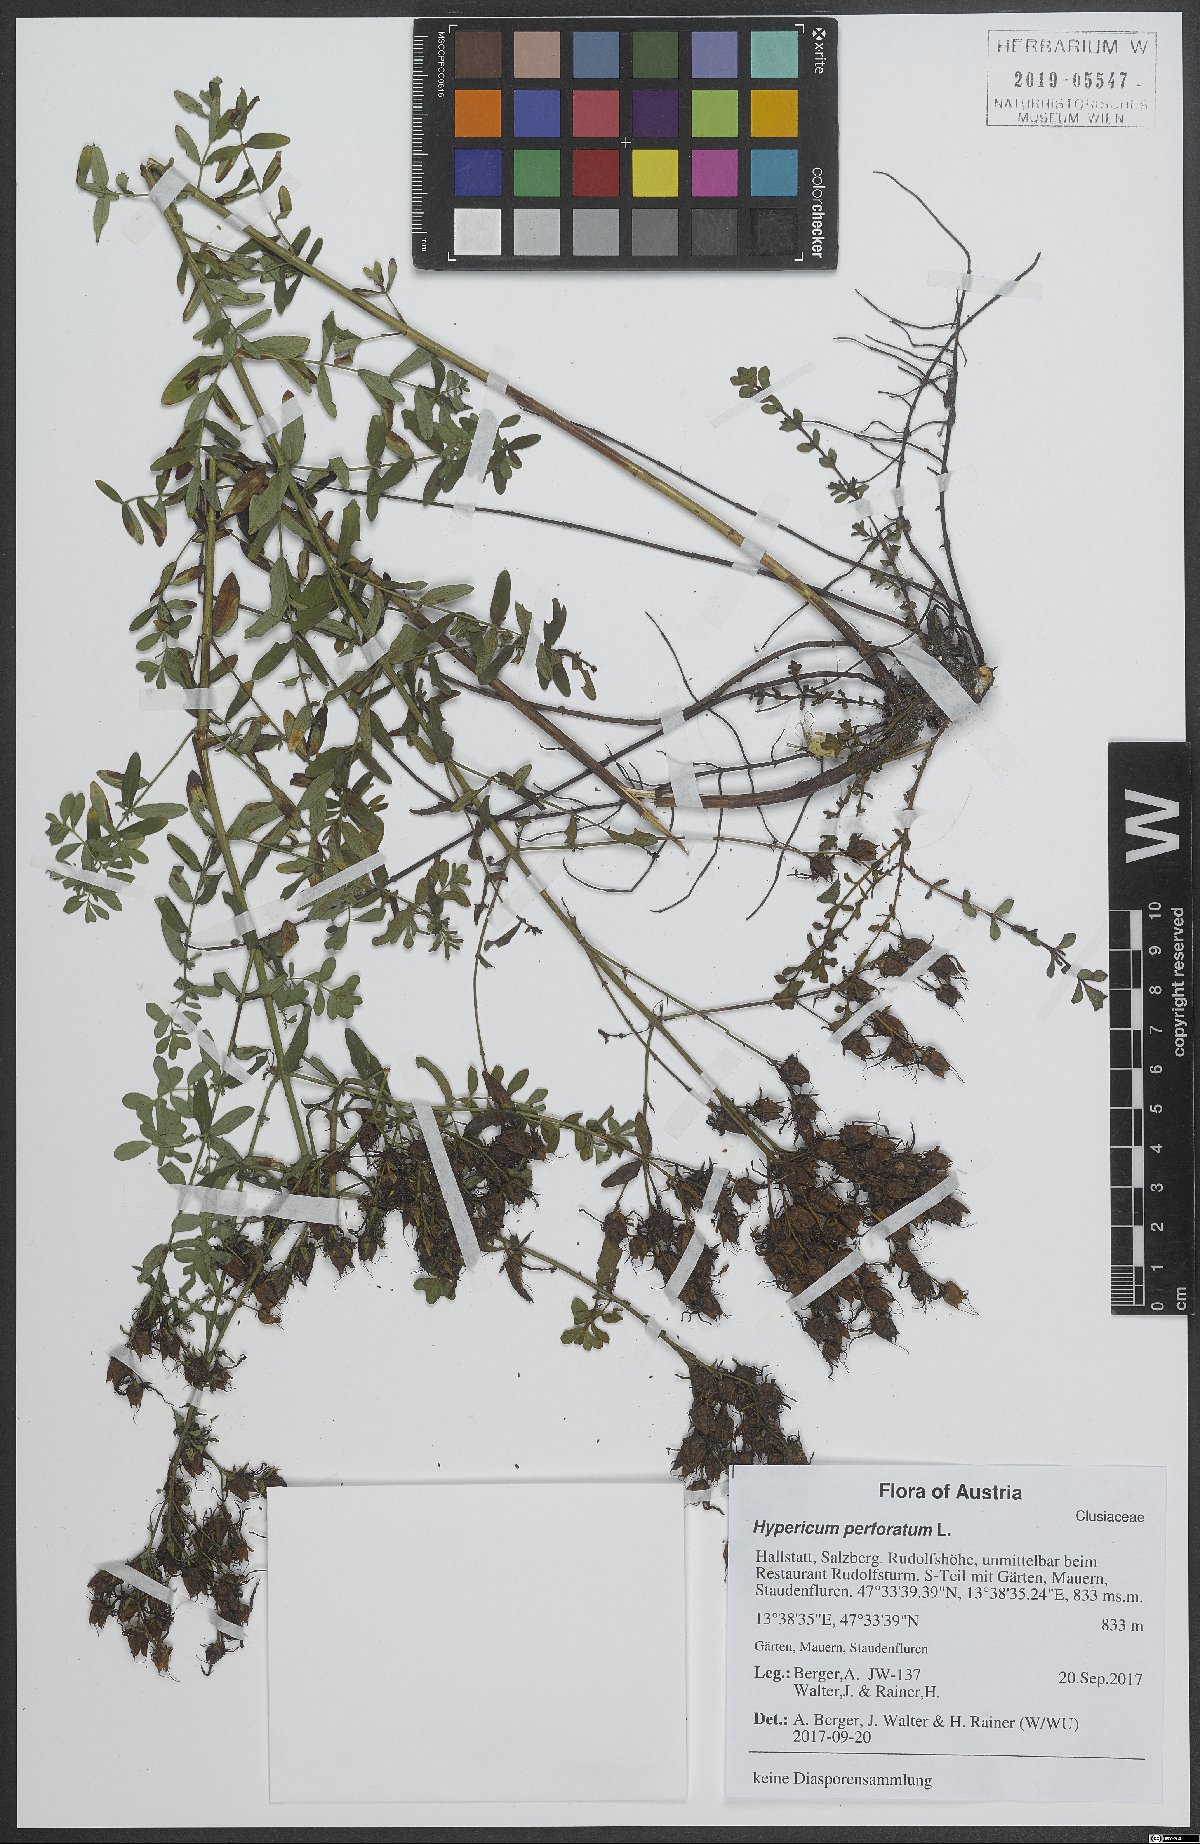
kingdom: Plantae
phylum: Tracheophyta
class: Magnoliopsida
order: Malpighiales
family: Hypericaceae
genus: Hypericum
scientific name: Hypericum perforatum
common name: Common st. johnswort
